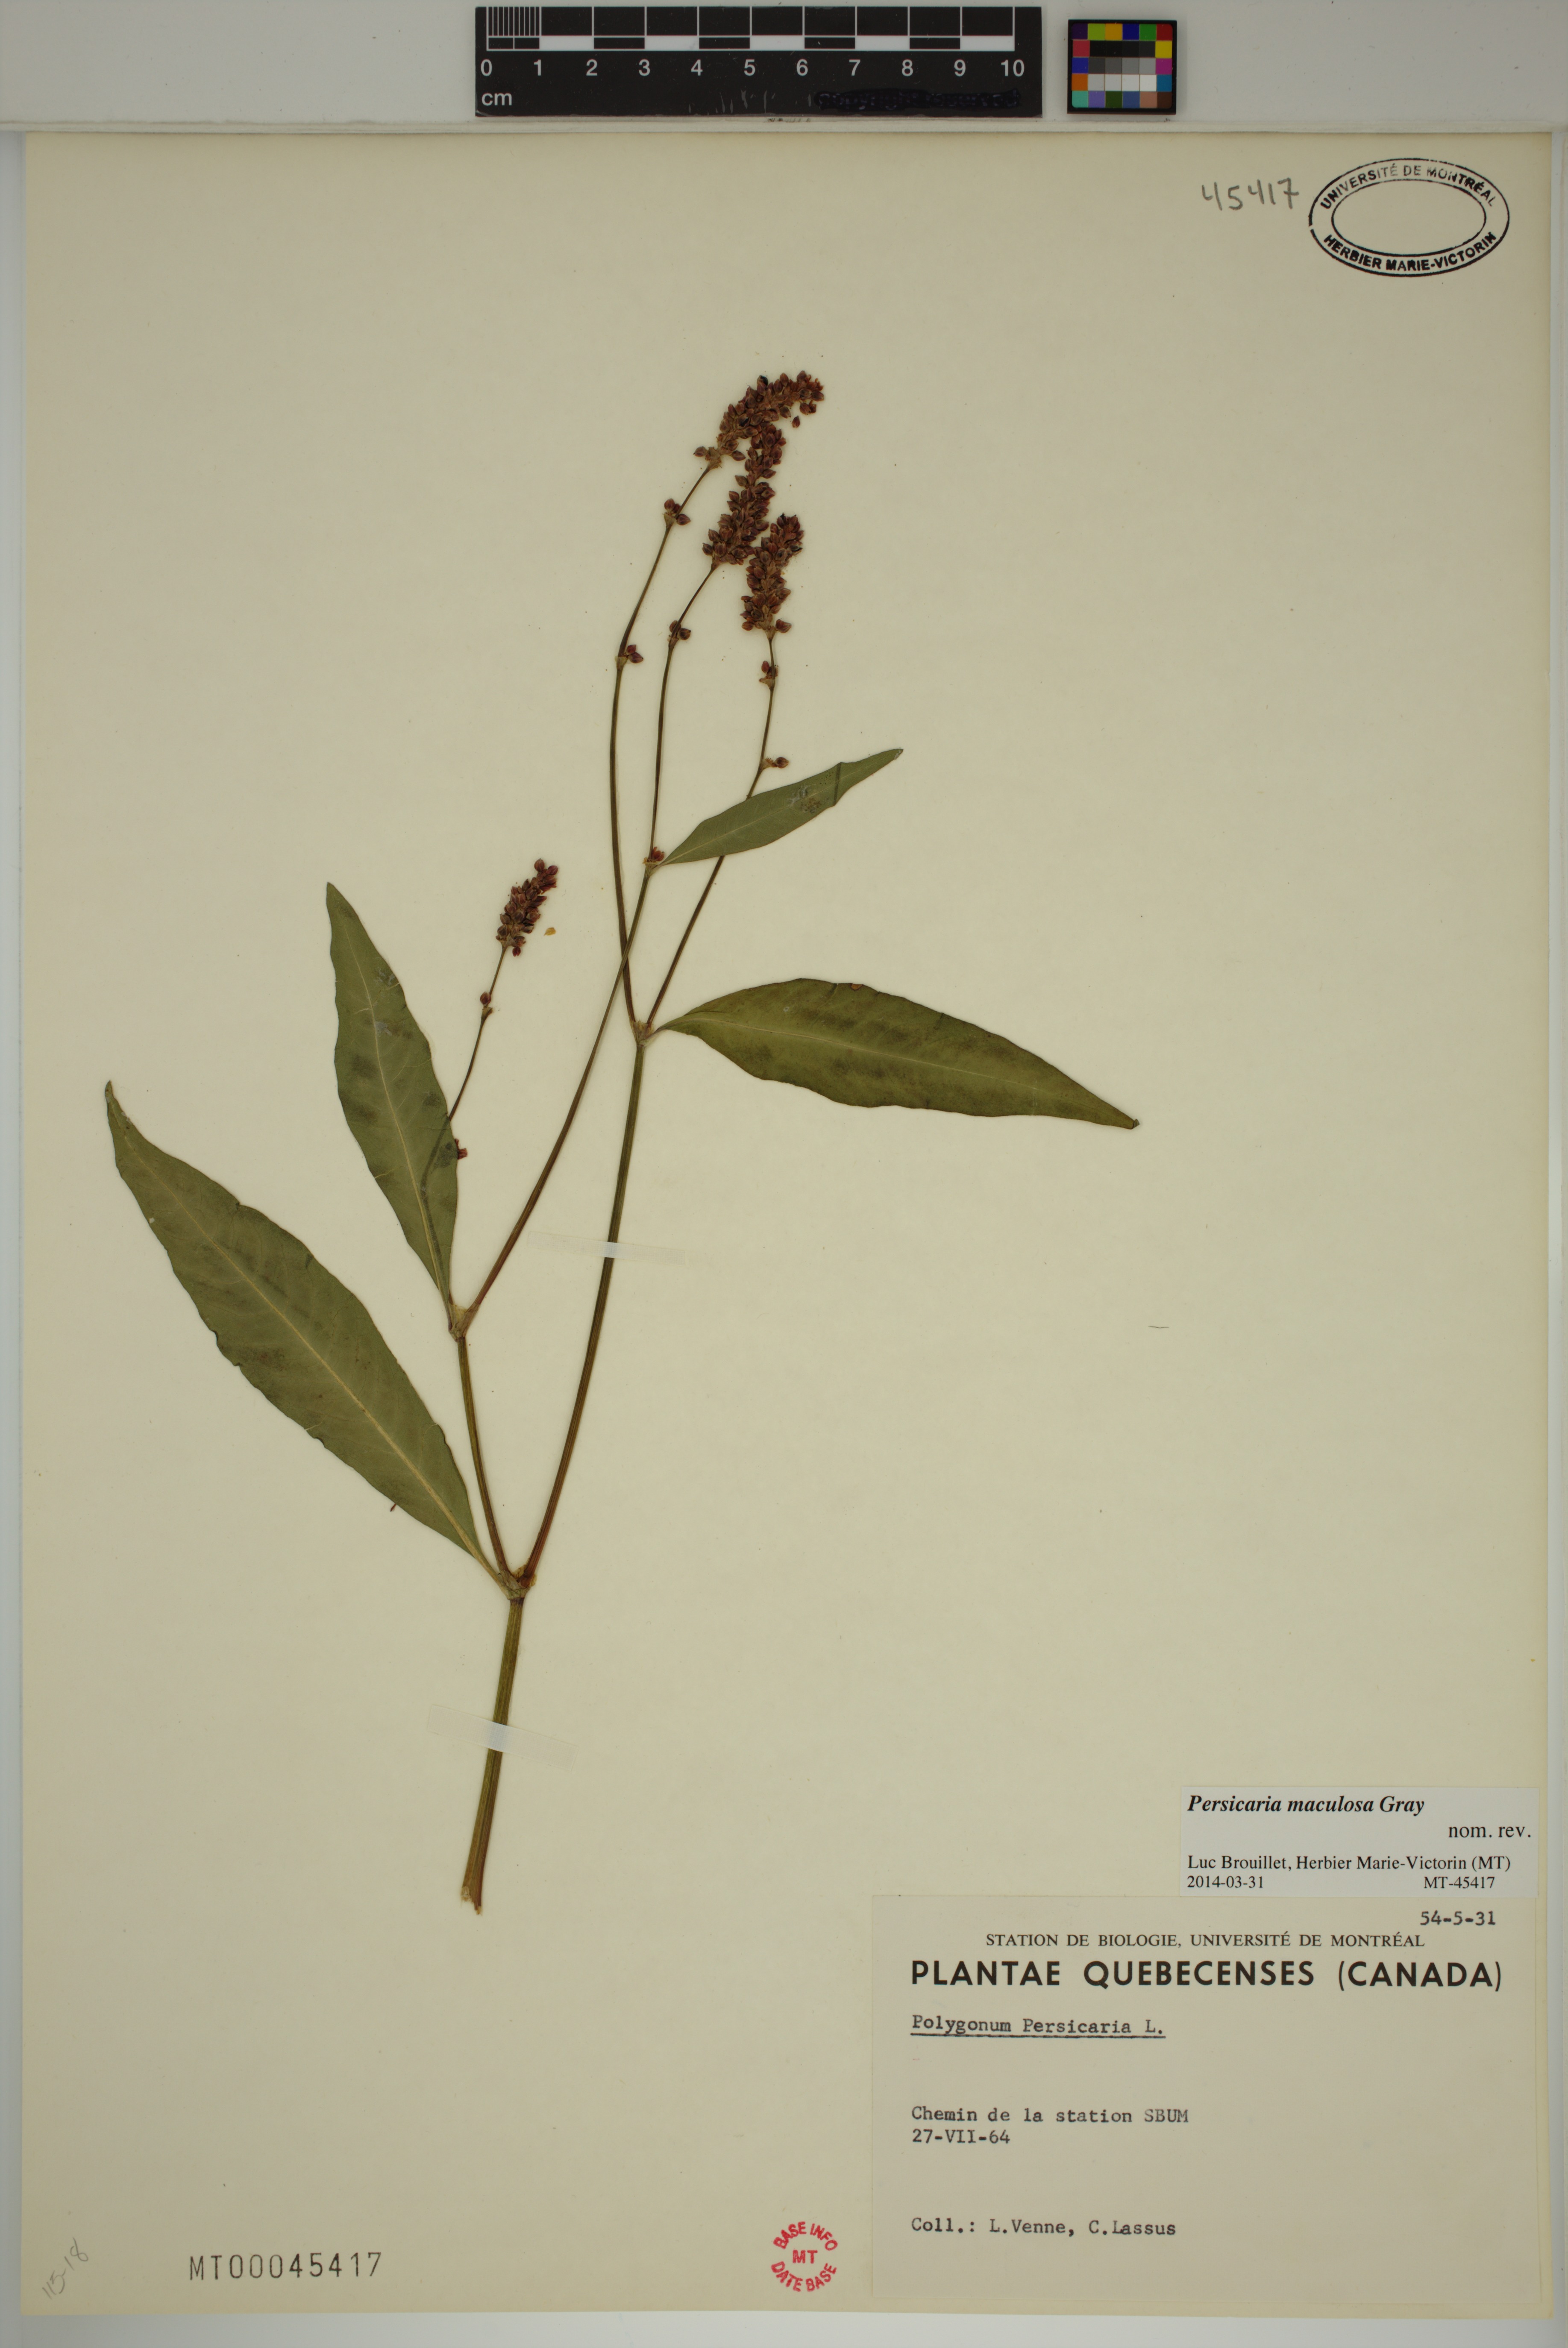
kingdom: Plantae
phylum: Tracheophyta
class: Magnoliopsida
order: Caryophyllales
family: Polygonaceae
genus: Persicaria
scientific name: Persicaria maculosa
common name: Redshank
